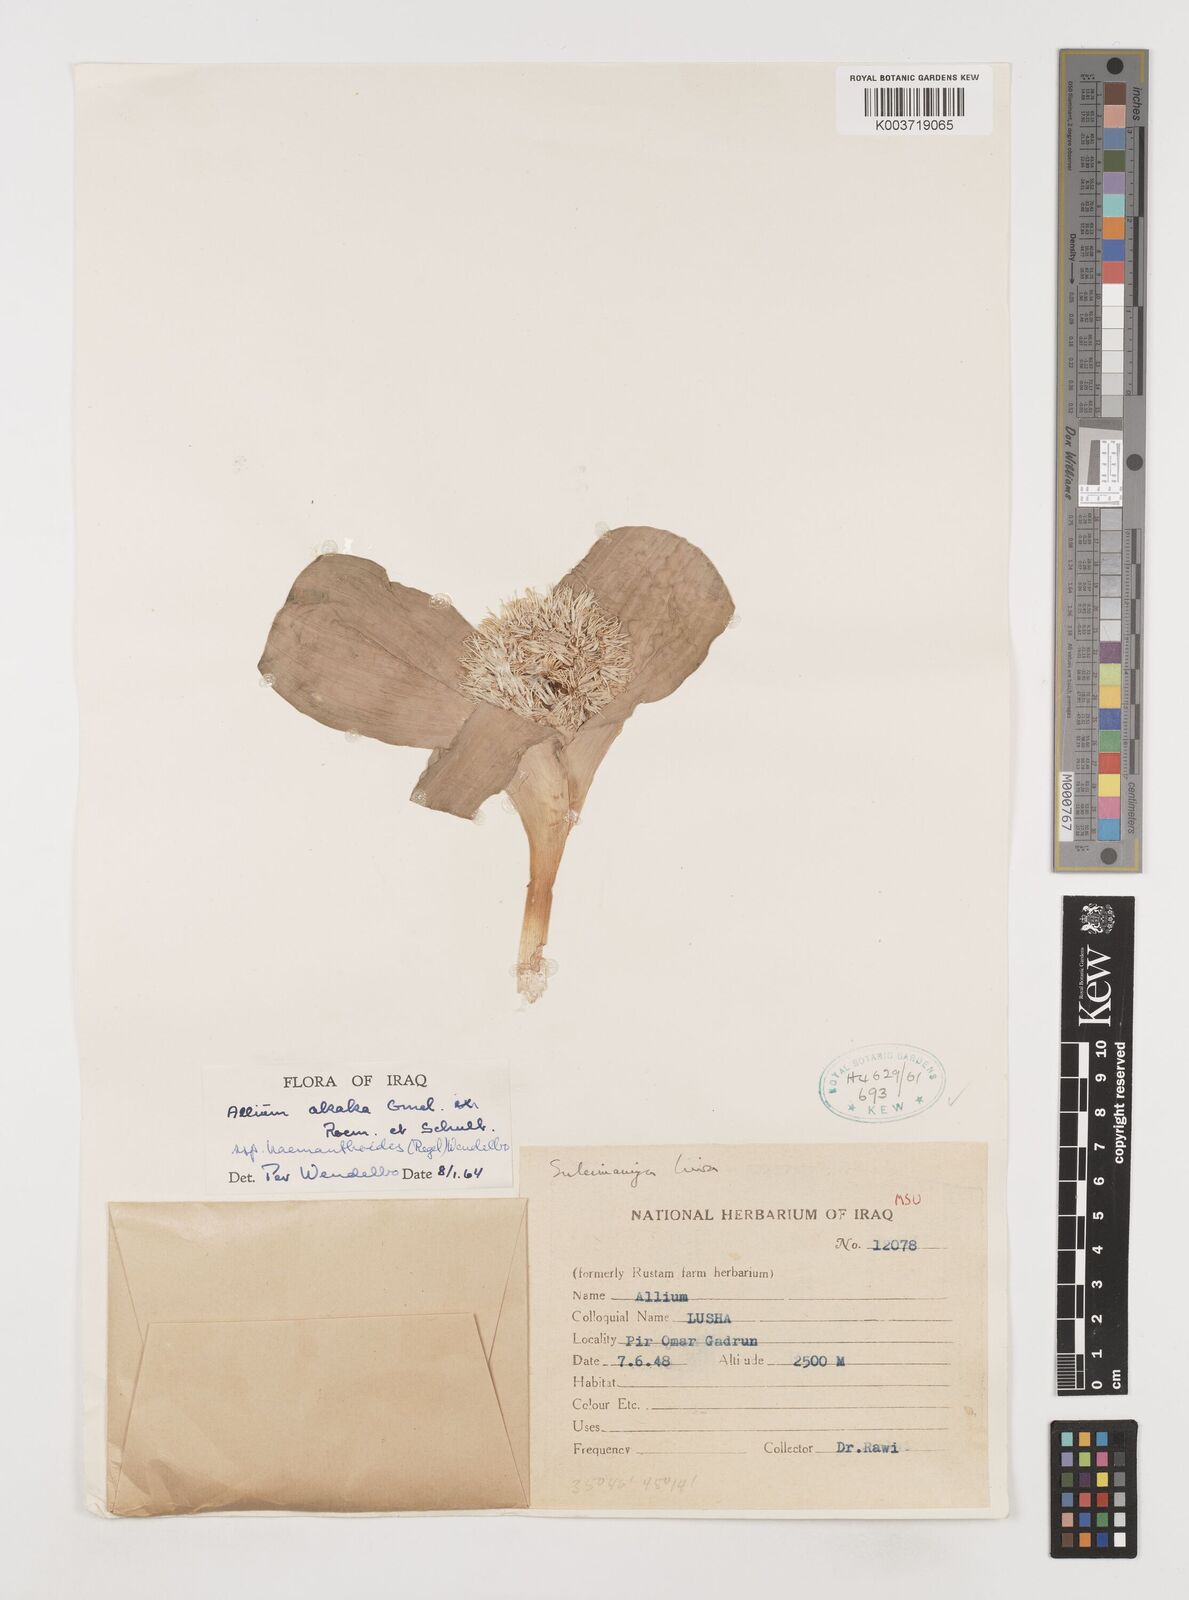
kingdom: Plantae
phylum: Tracheophyta
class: Liliopsida
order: Asparagales
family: Amaryllidaceae
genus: Allium
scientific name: Allium haemanthoides
